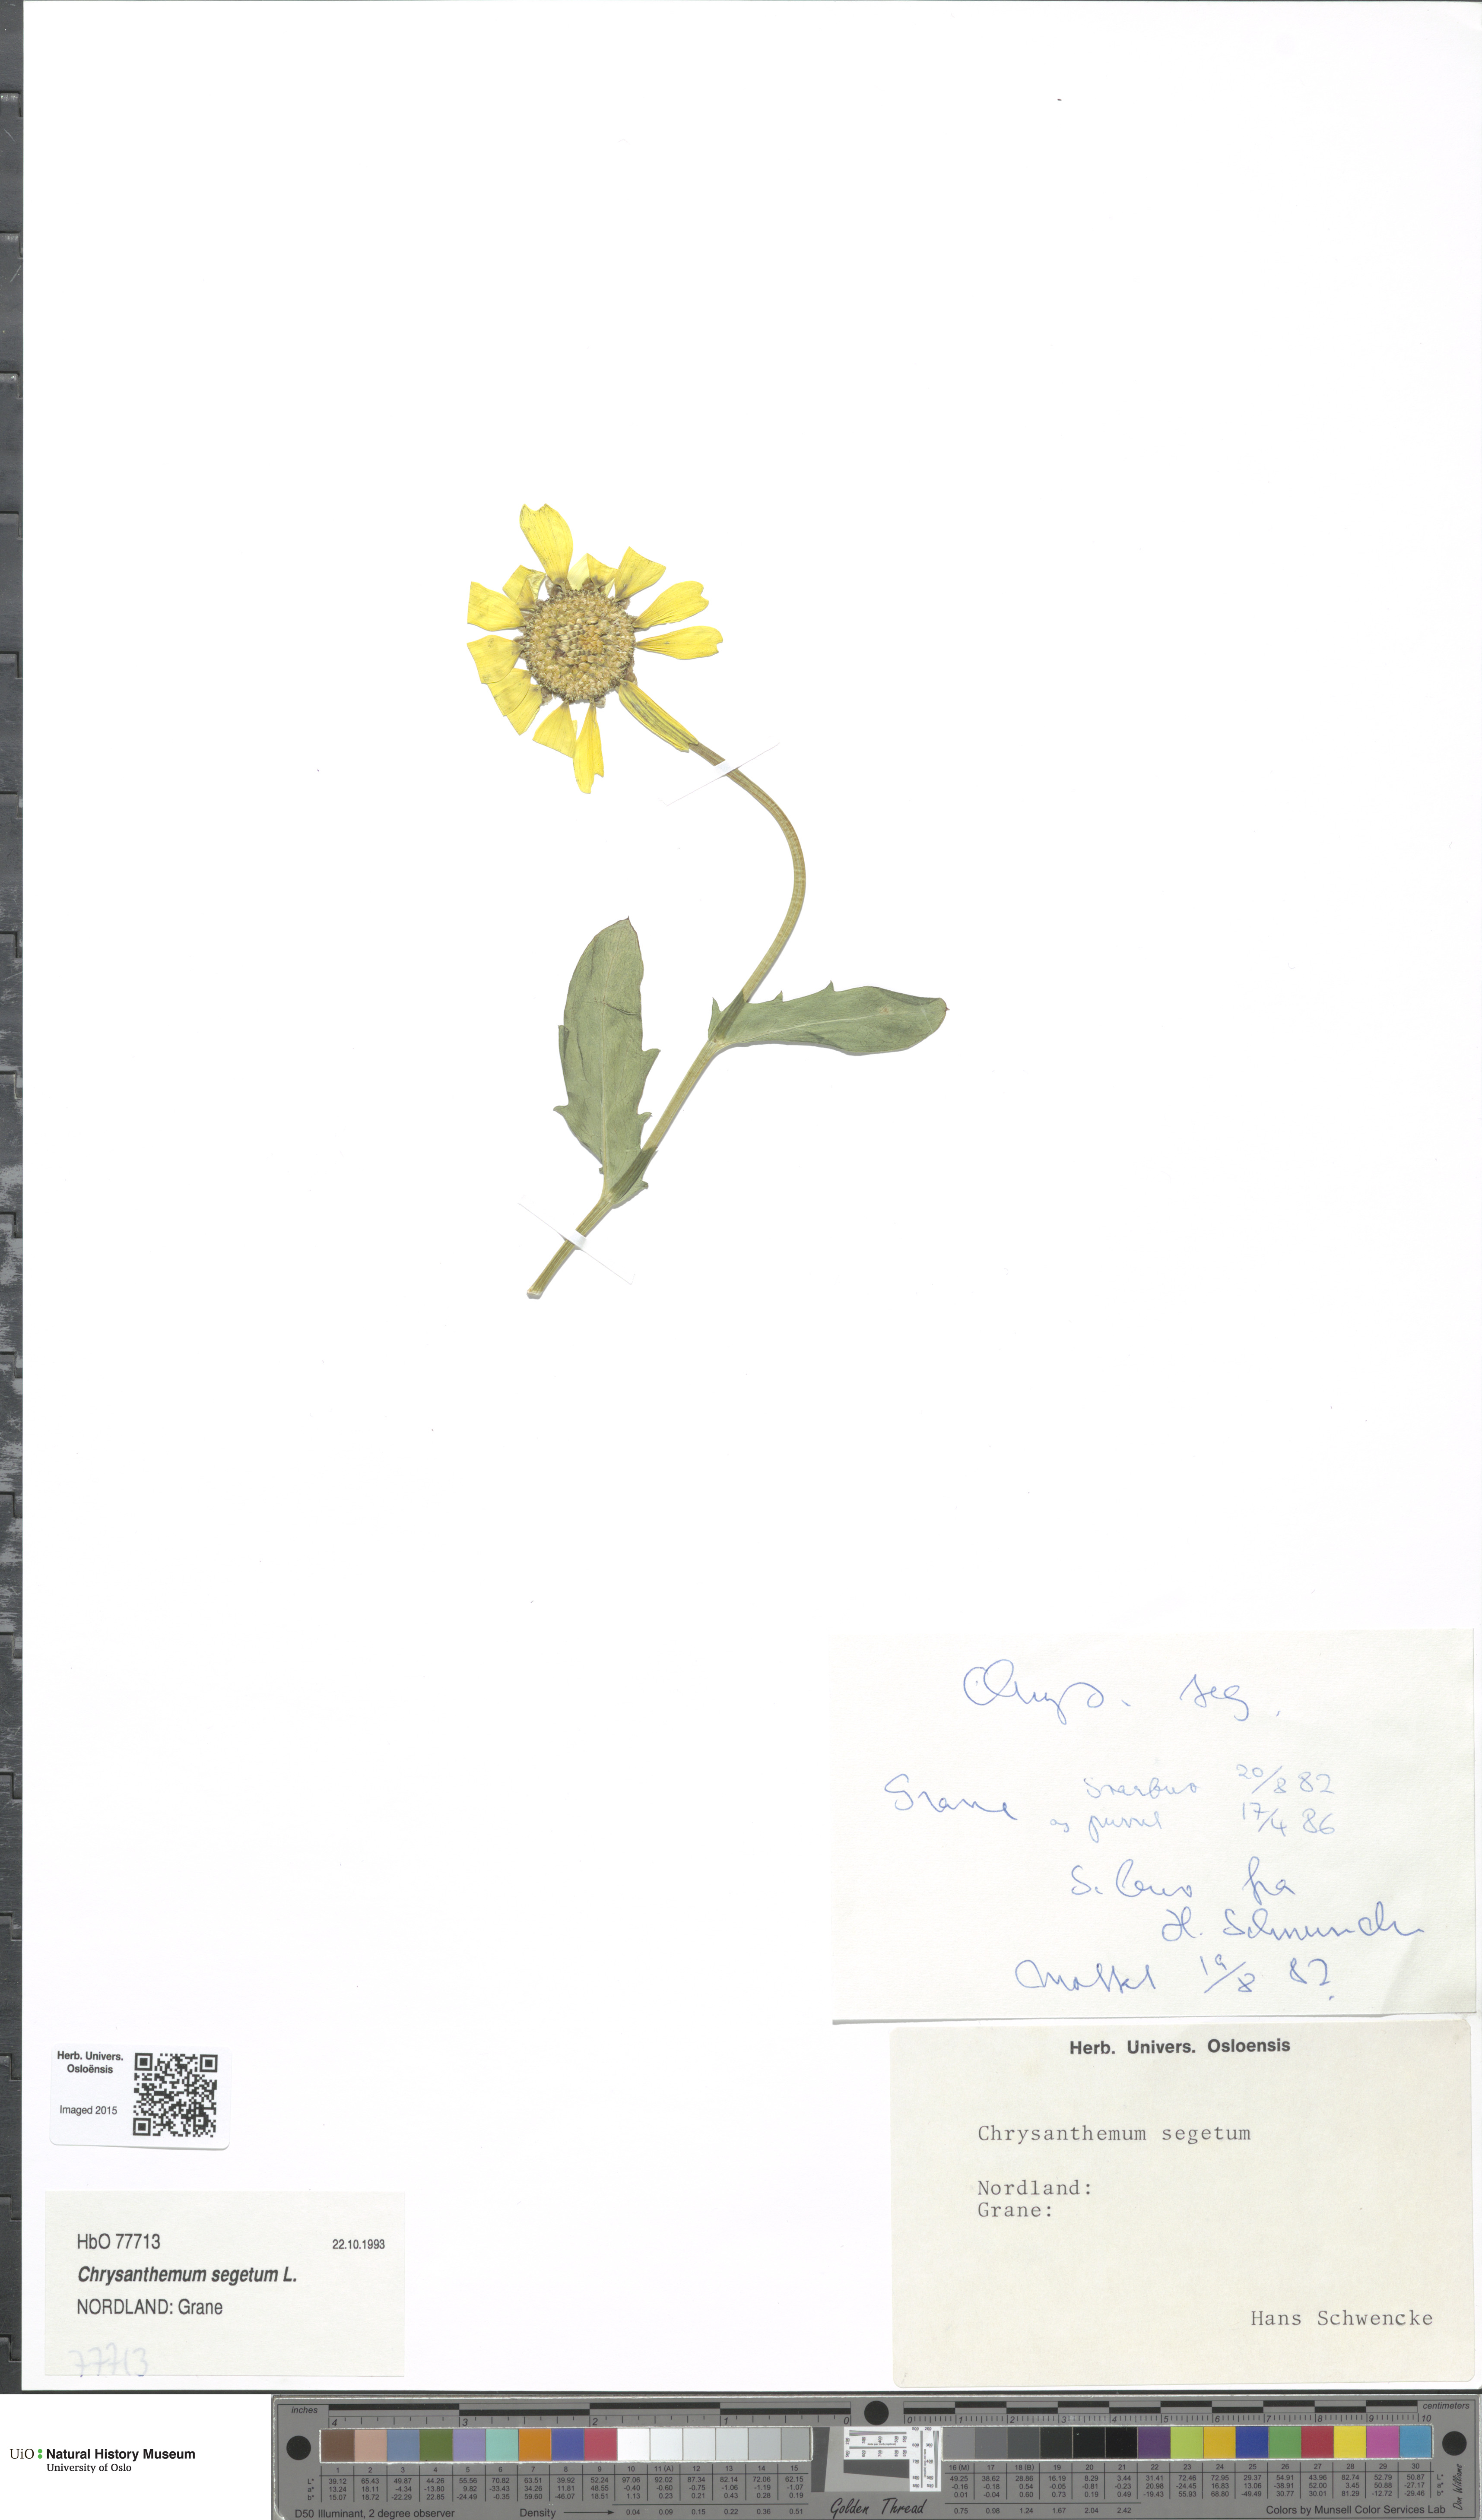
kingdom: Plantae
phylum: Tracheophyta
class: Magnoliopsida
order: Asterales
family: Asteraceae
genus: Glebionis
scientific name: Glebionis segetum
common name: Corndaisy
